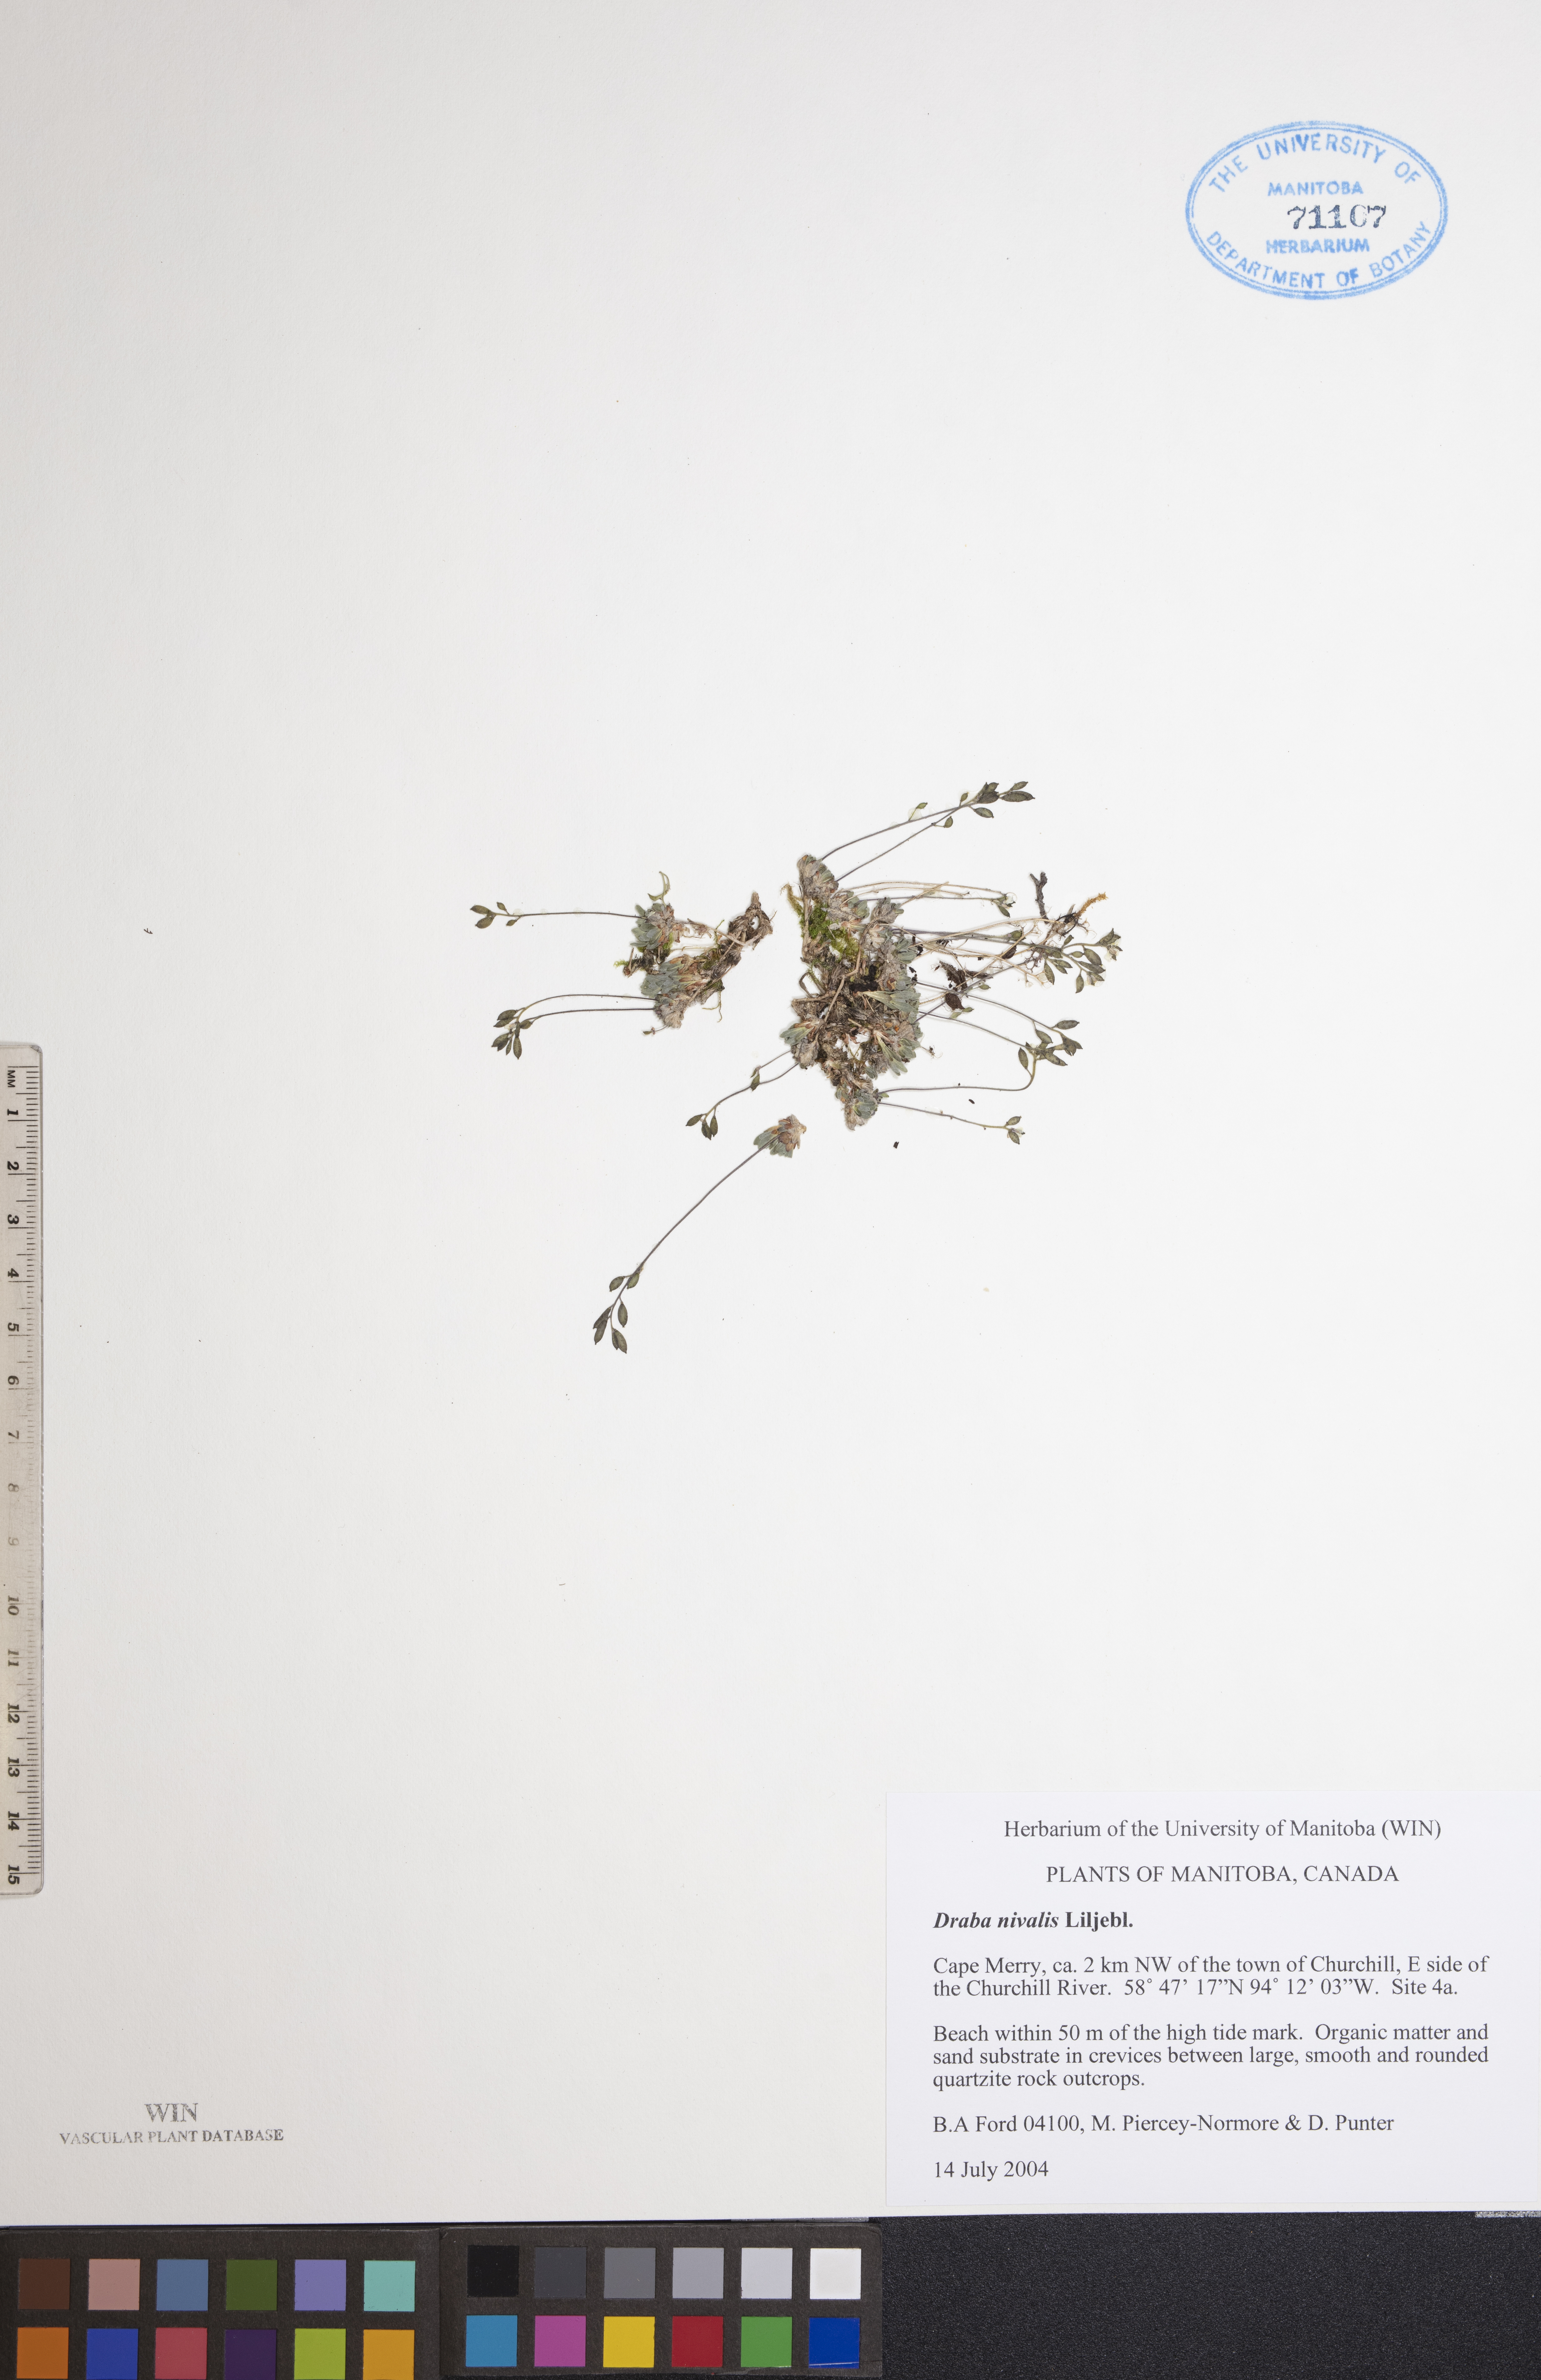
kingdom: Plantae
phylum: Tracheophyta
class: Magnoliopsida
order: Brassicales
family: Brassicaceae
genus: Draba
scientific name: Draba nivalis
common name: Snow draba
